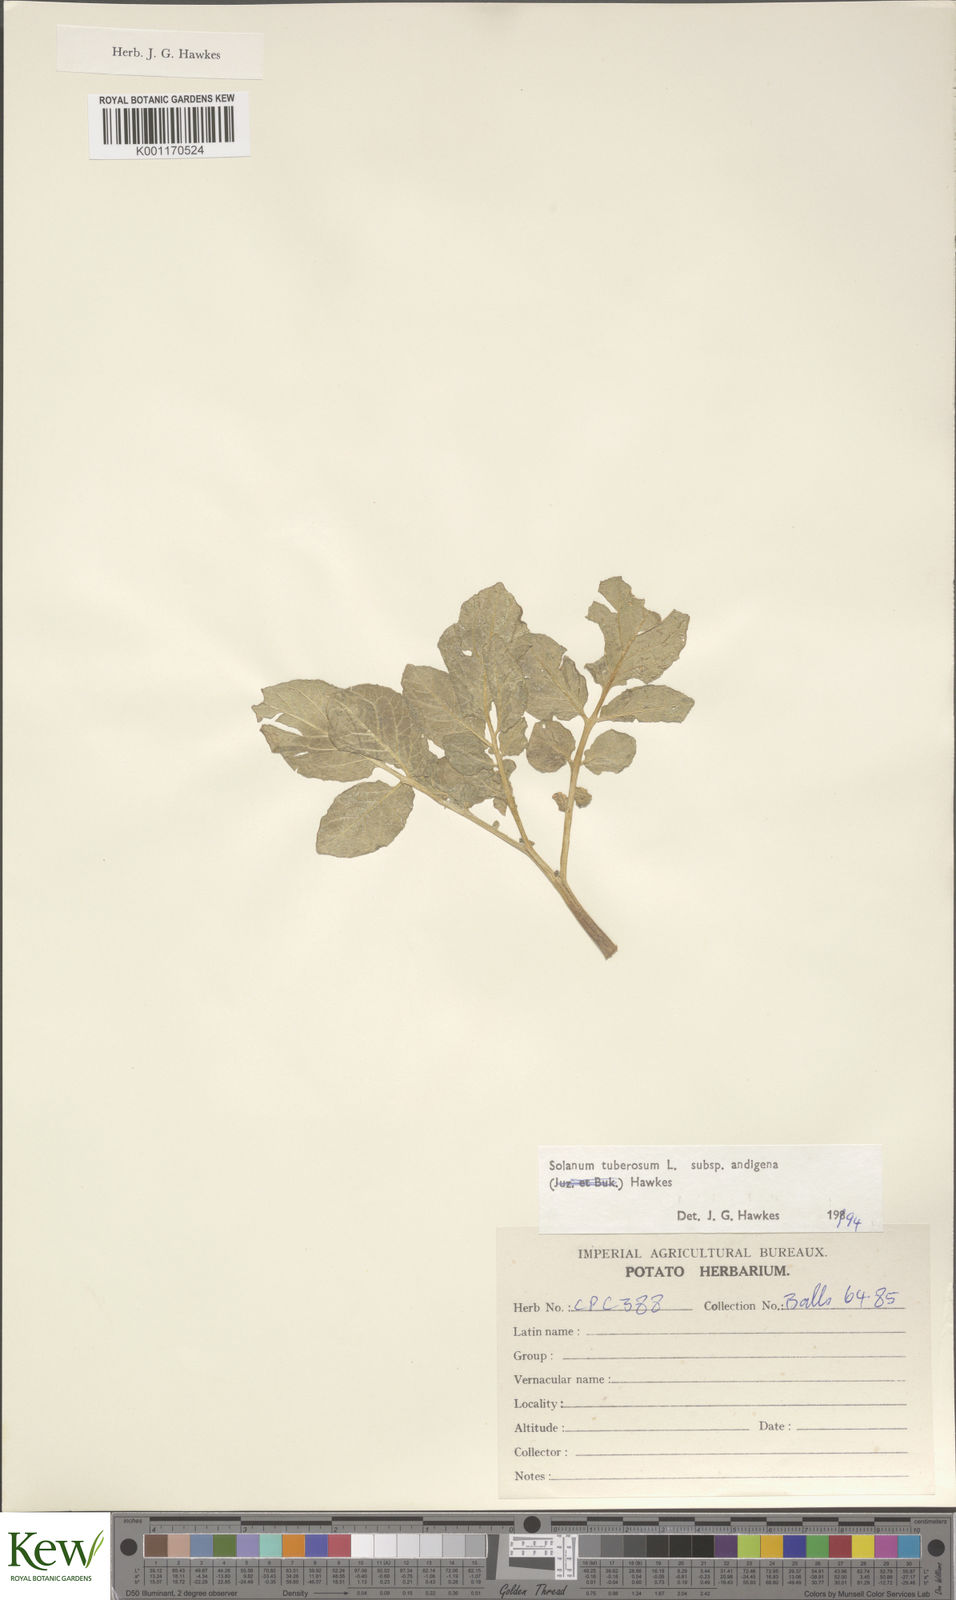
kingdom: Plantae
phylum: Tracheophyta
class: Magnoliopsida
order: Solanales
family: Solanaceae
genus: Solanum
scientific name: Solanum tuberosum
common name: Potato
